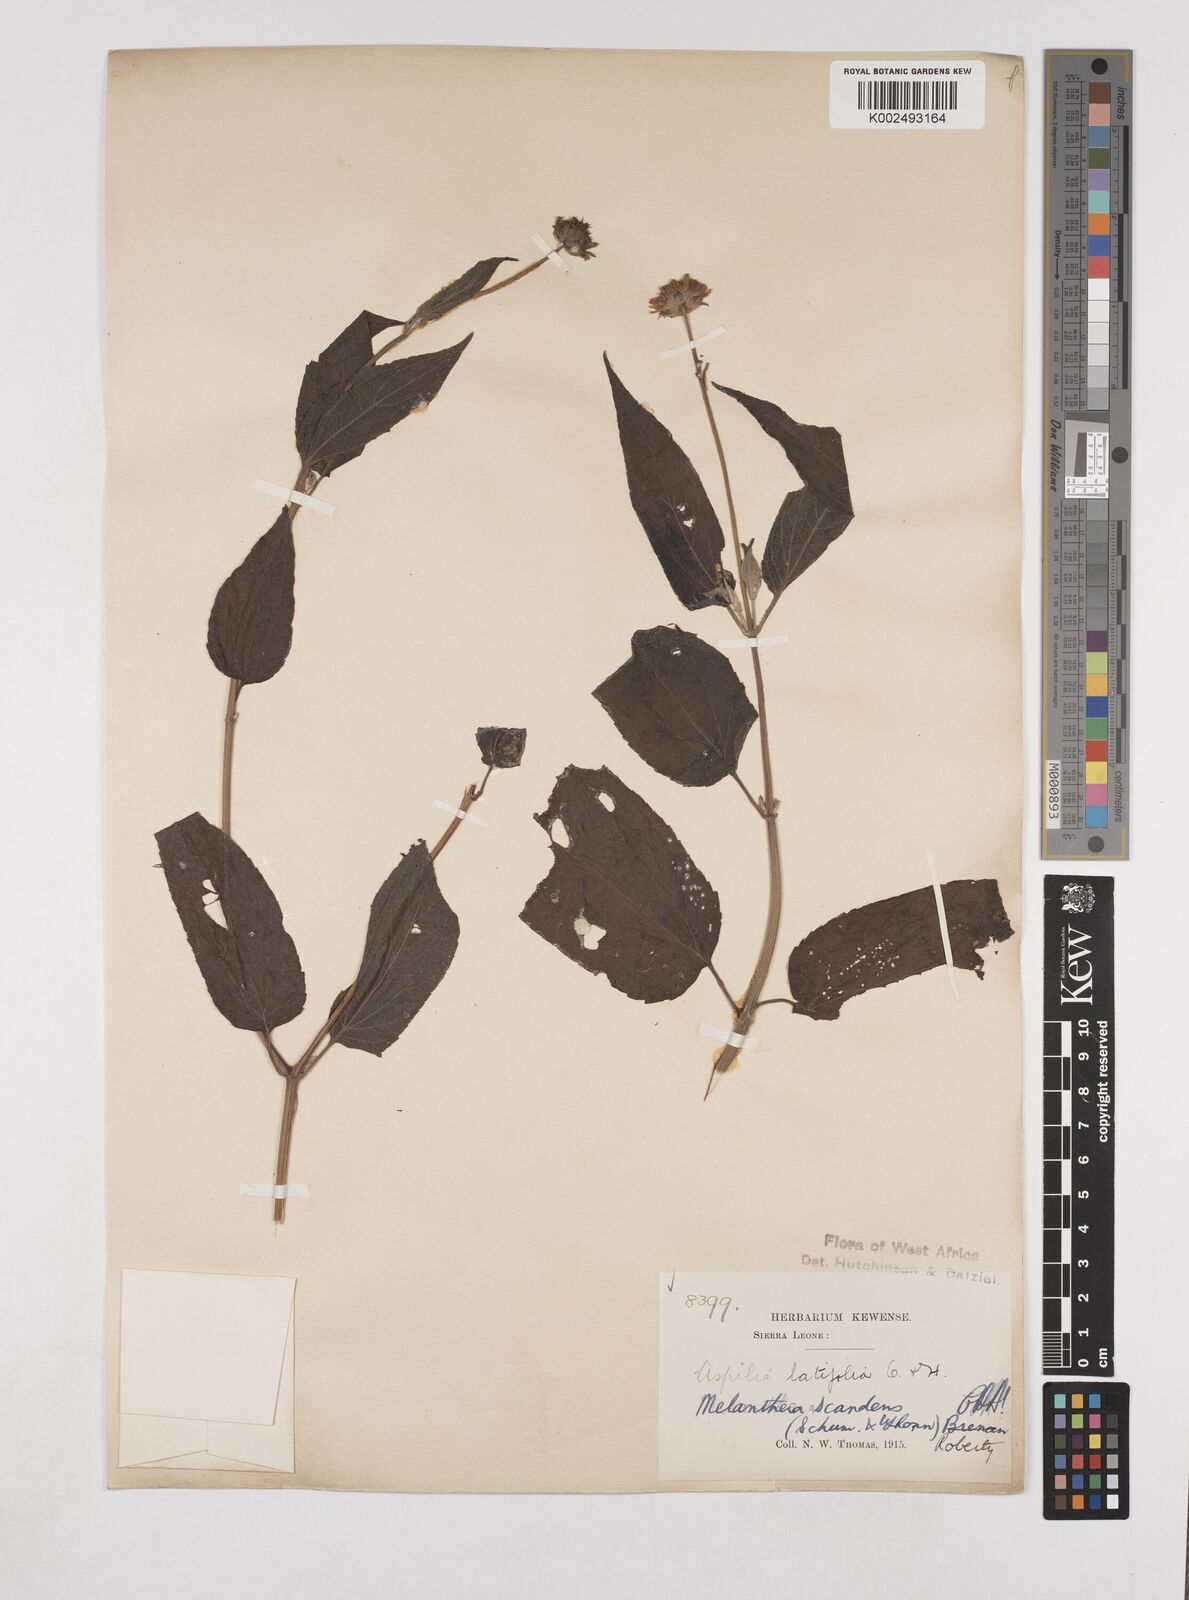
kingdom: Plantae
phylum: Tracheophyta
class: Magnoliopsida
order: Asterales
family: Asteraceae
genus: Lipotriche
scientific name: Lipotriche scandens
